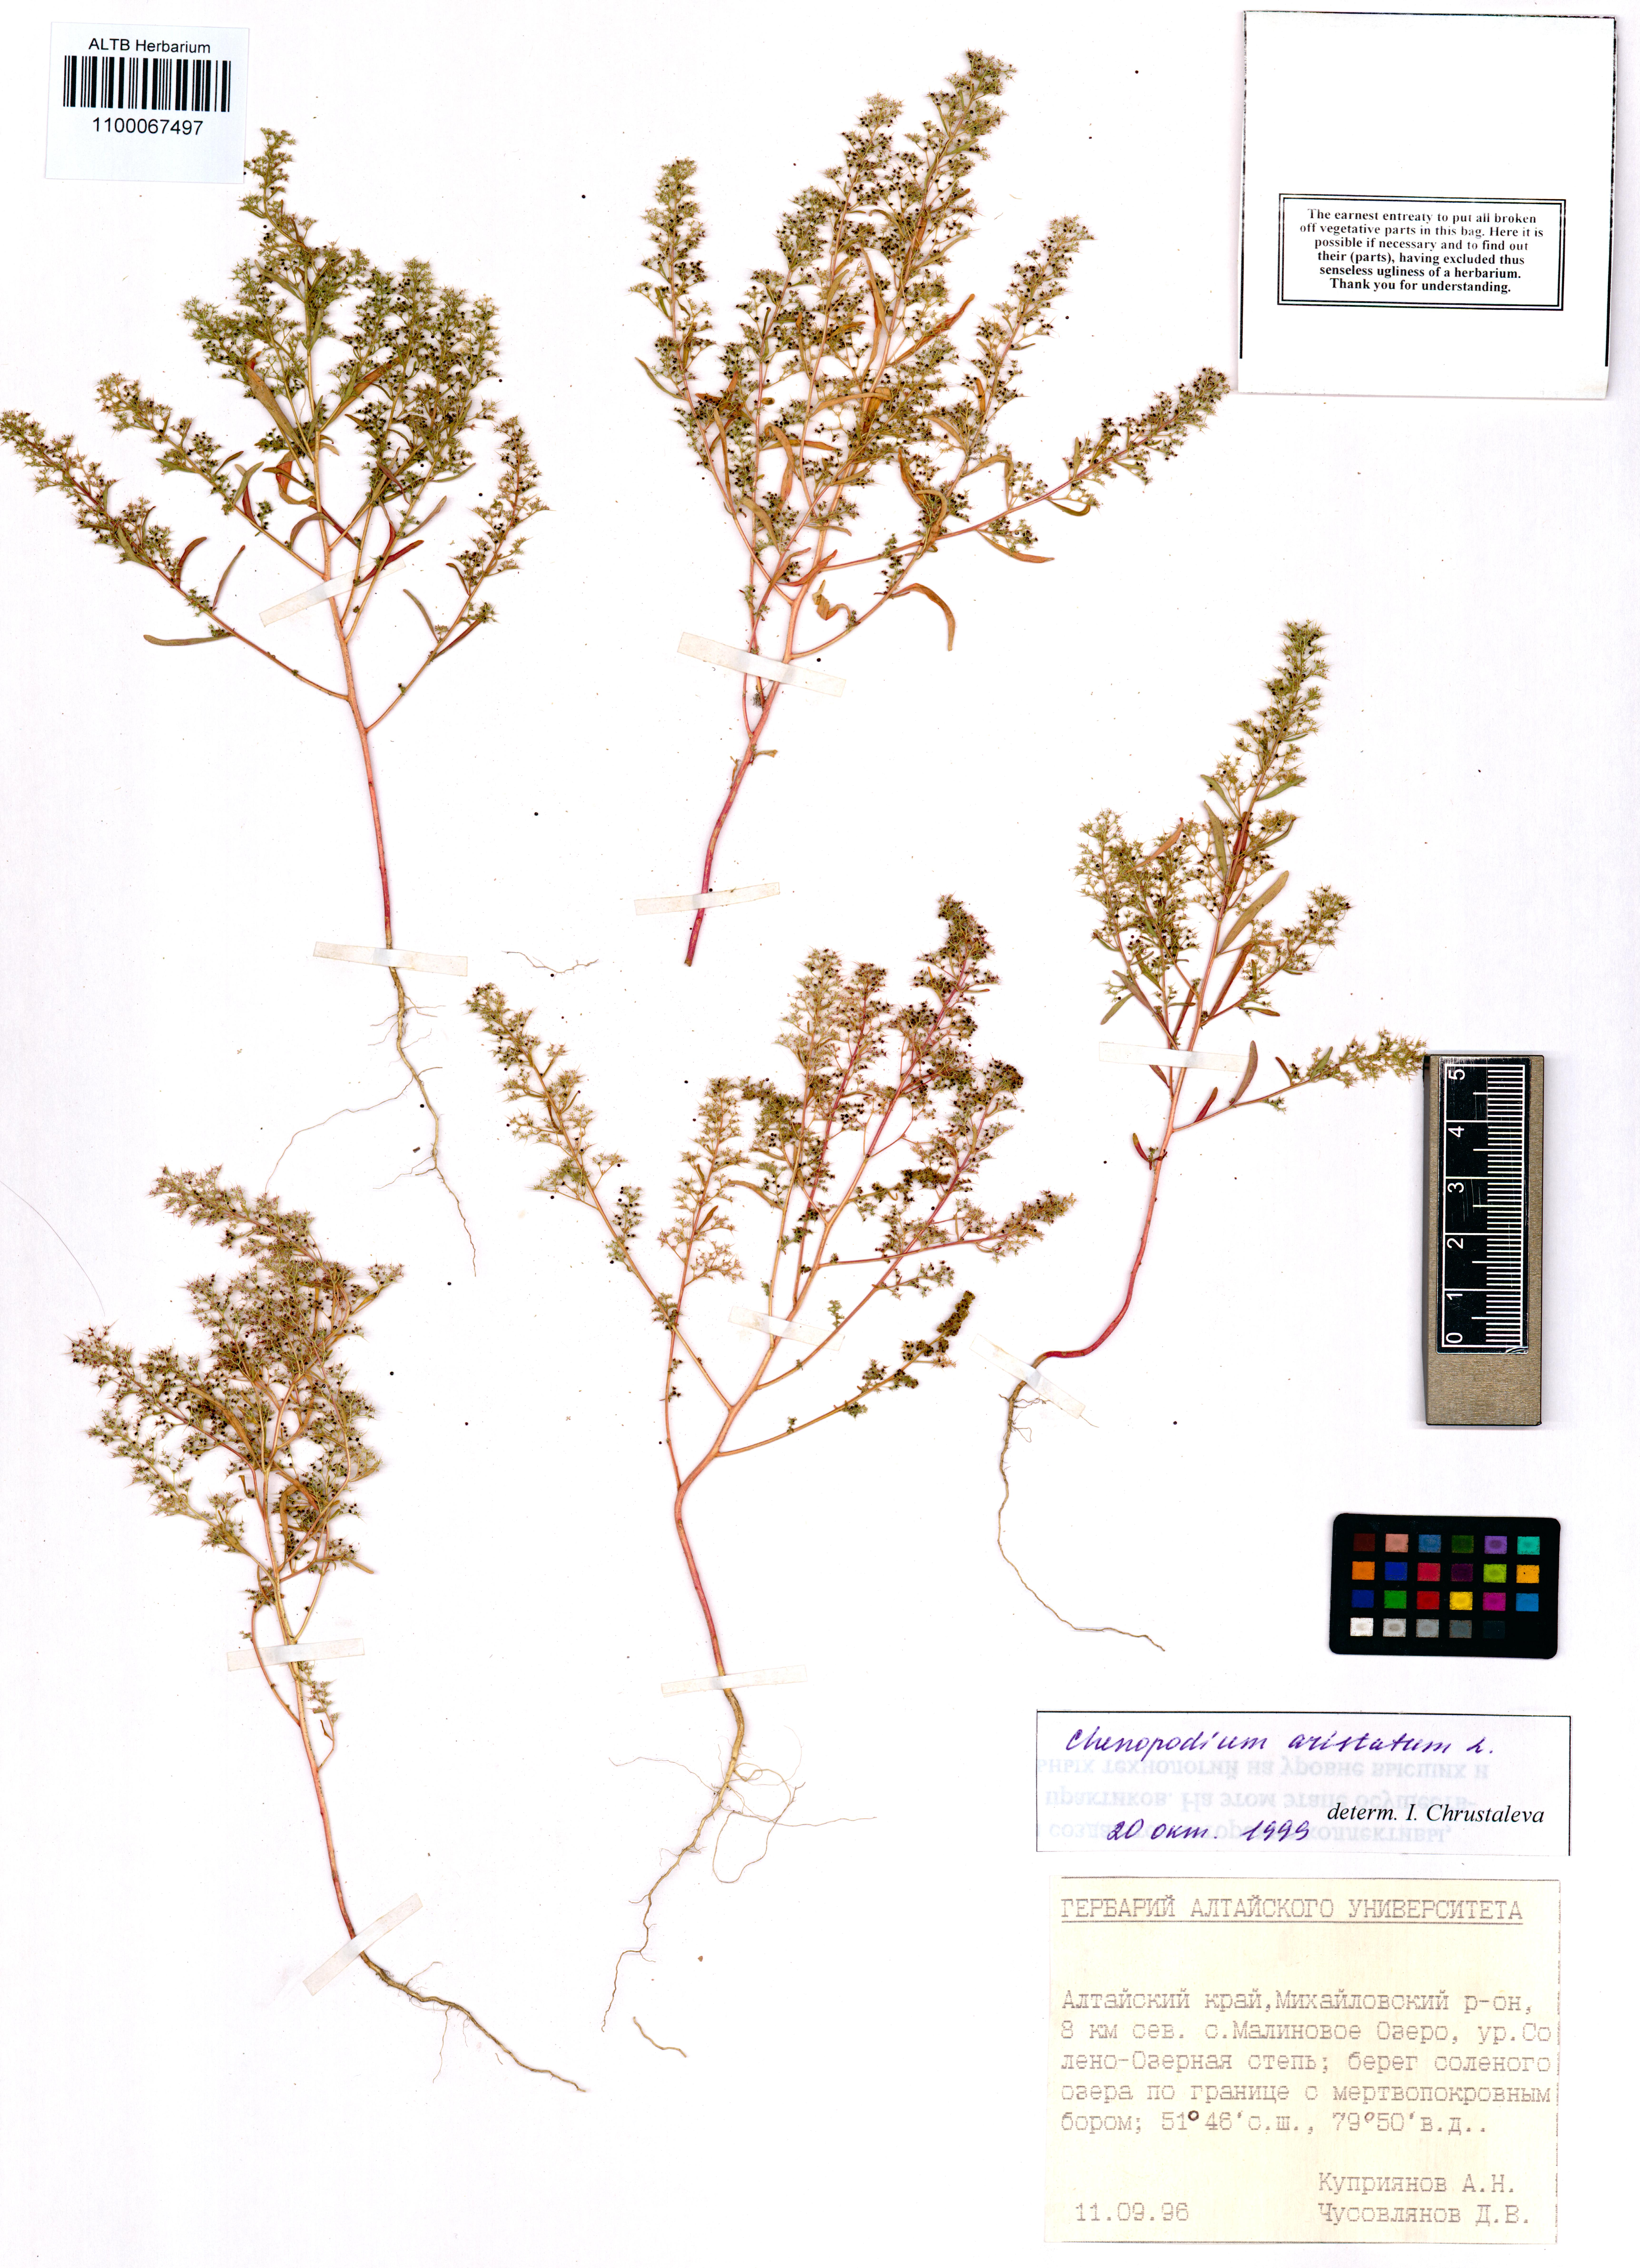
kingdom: Plantae
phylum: Tracheophyta
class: Magnoliopsida
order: Caryophyllales
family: Amaranthaceae
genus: Teloxys
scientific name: Teloxys aristata
